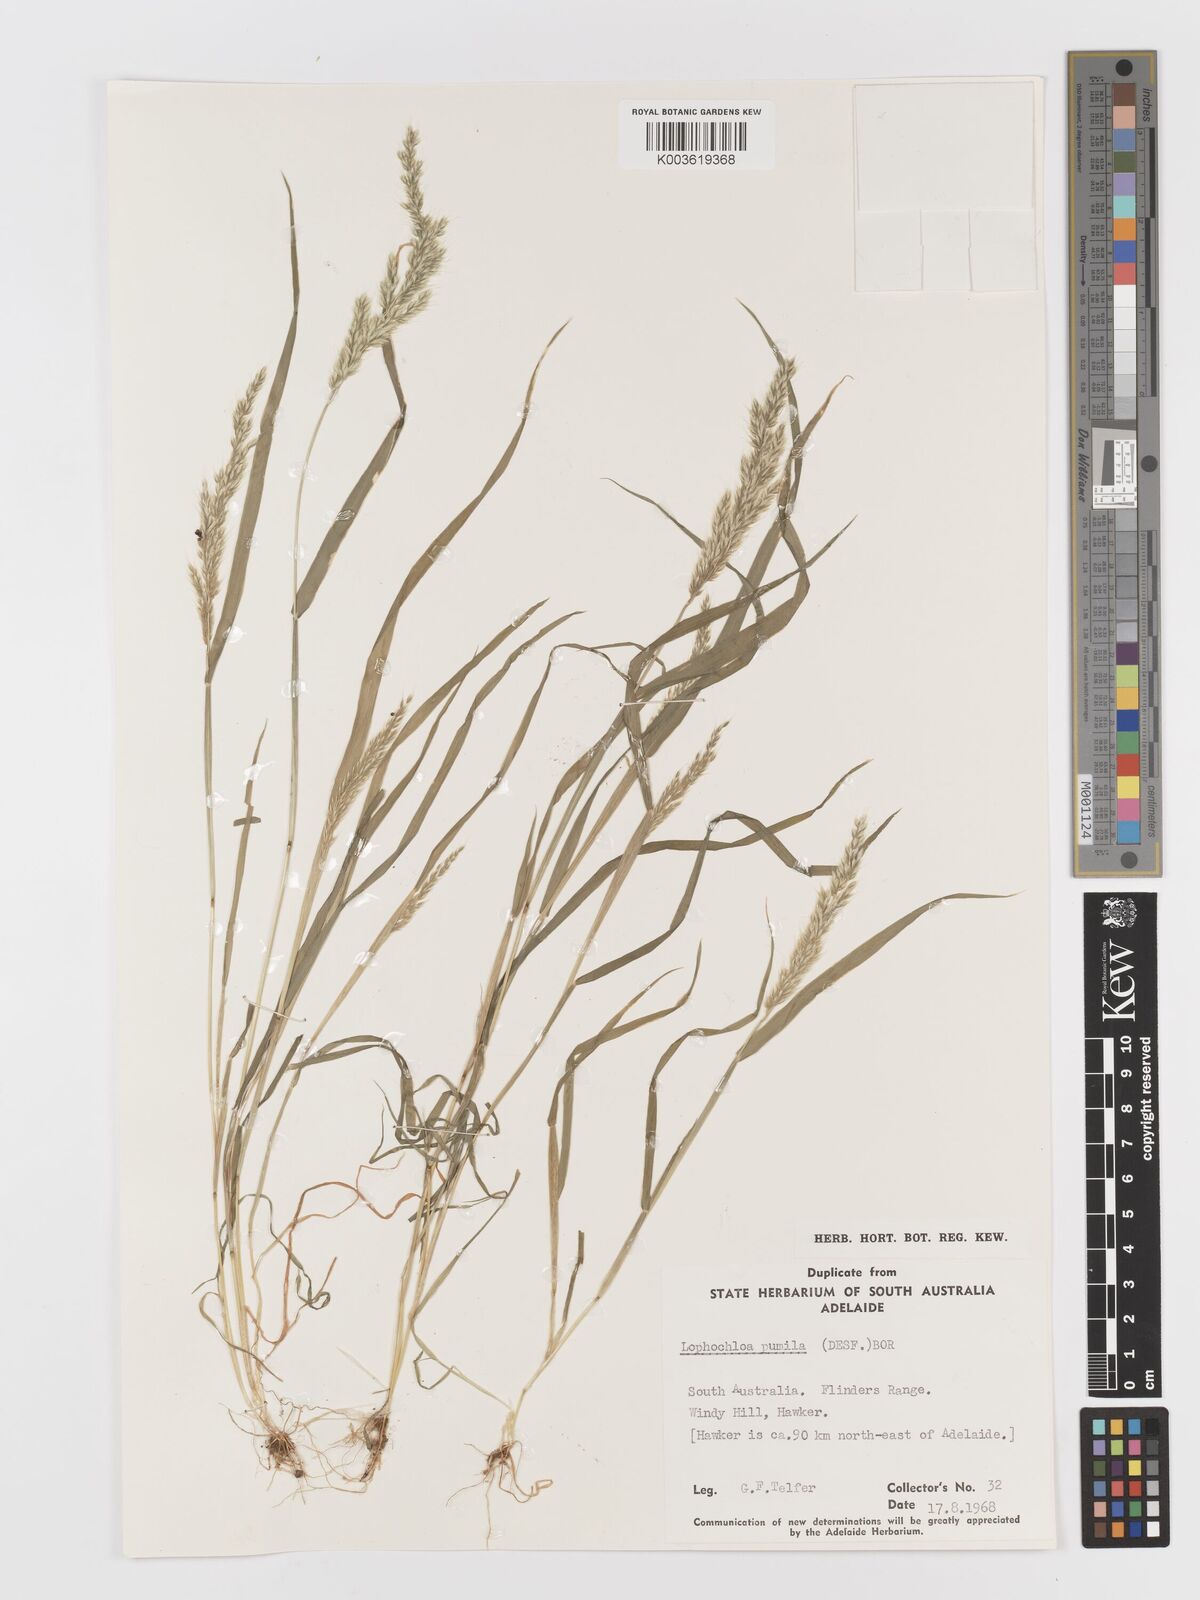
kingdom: Plantae
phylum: Tracheophyta
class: Liliopsida
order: Poales
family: Poaceae
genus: Rostraria
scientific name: Rostraria pumila
